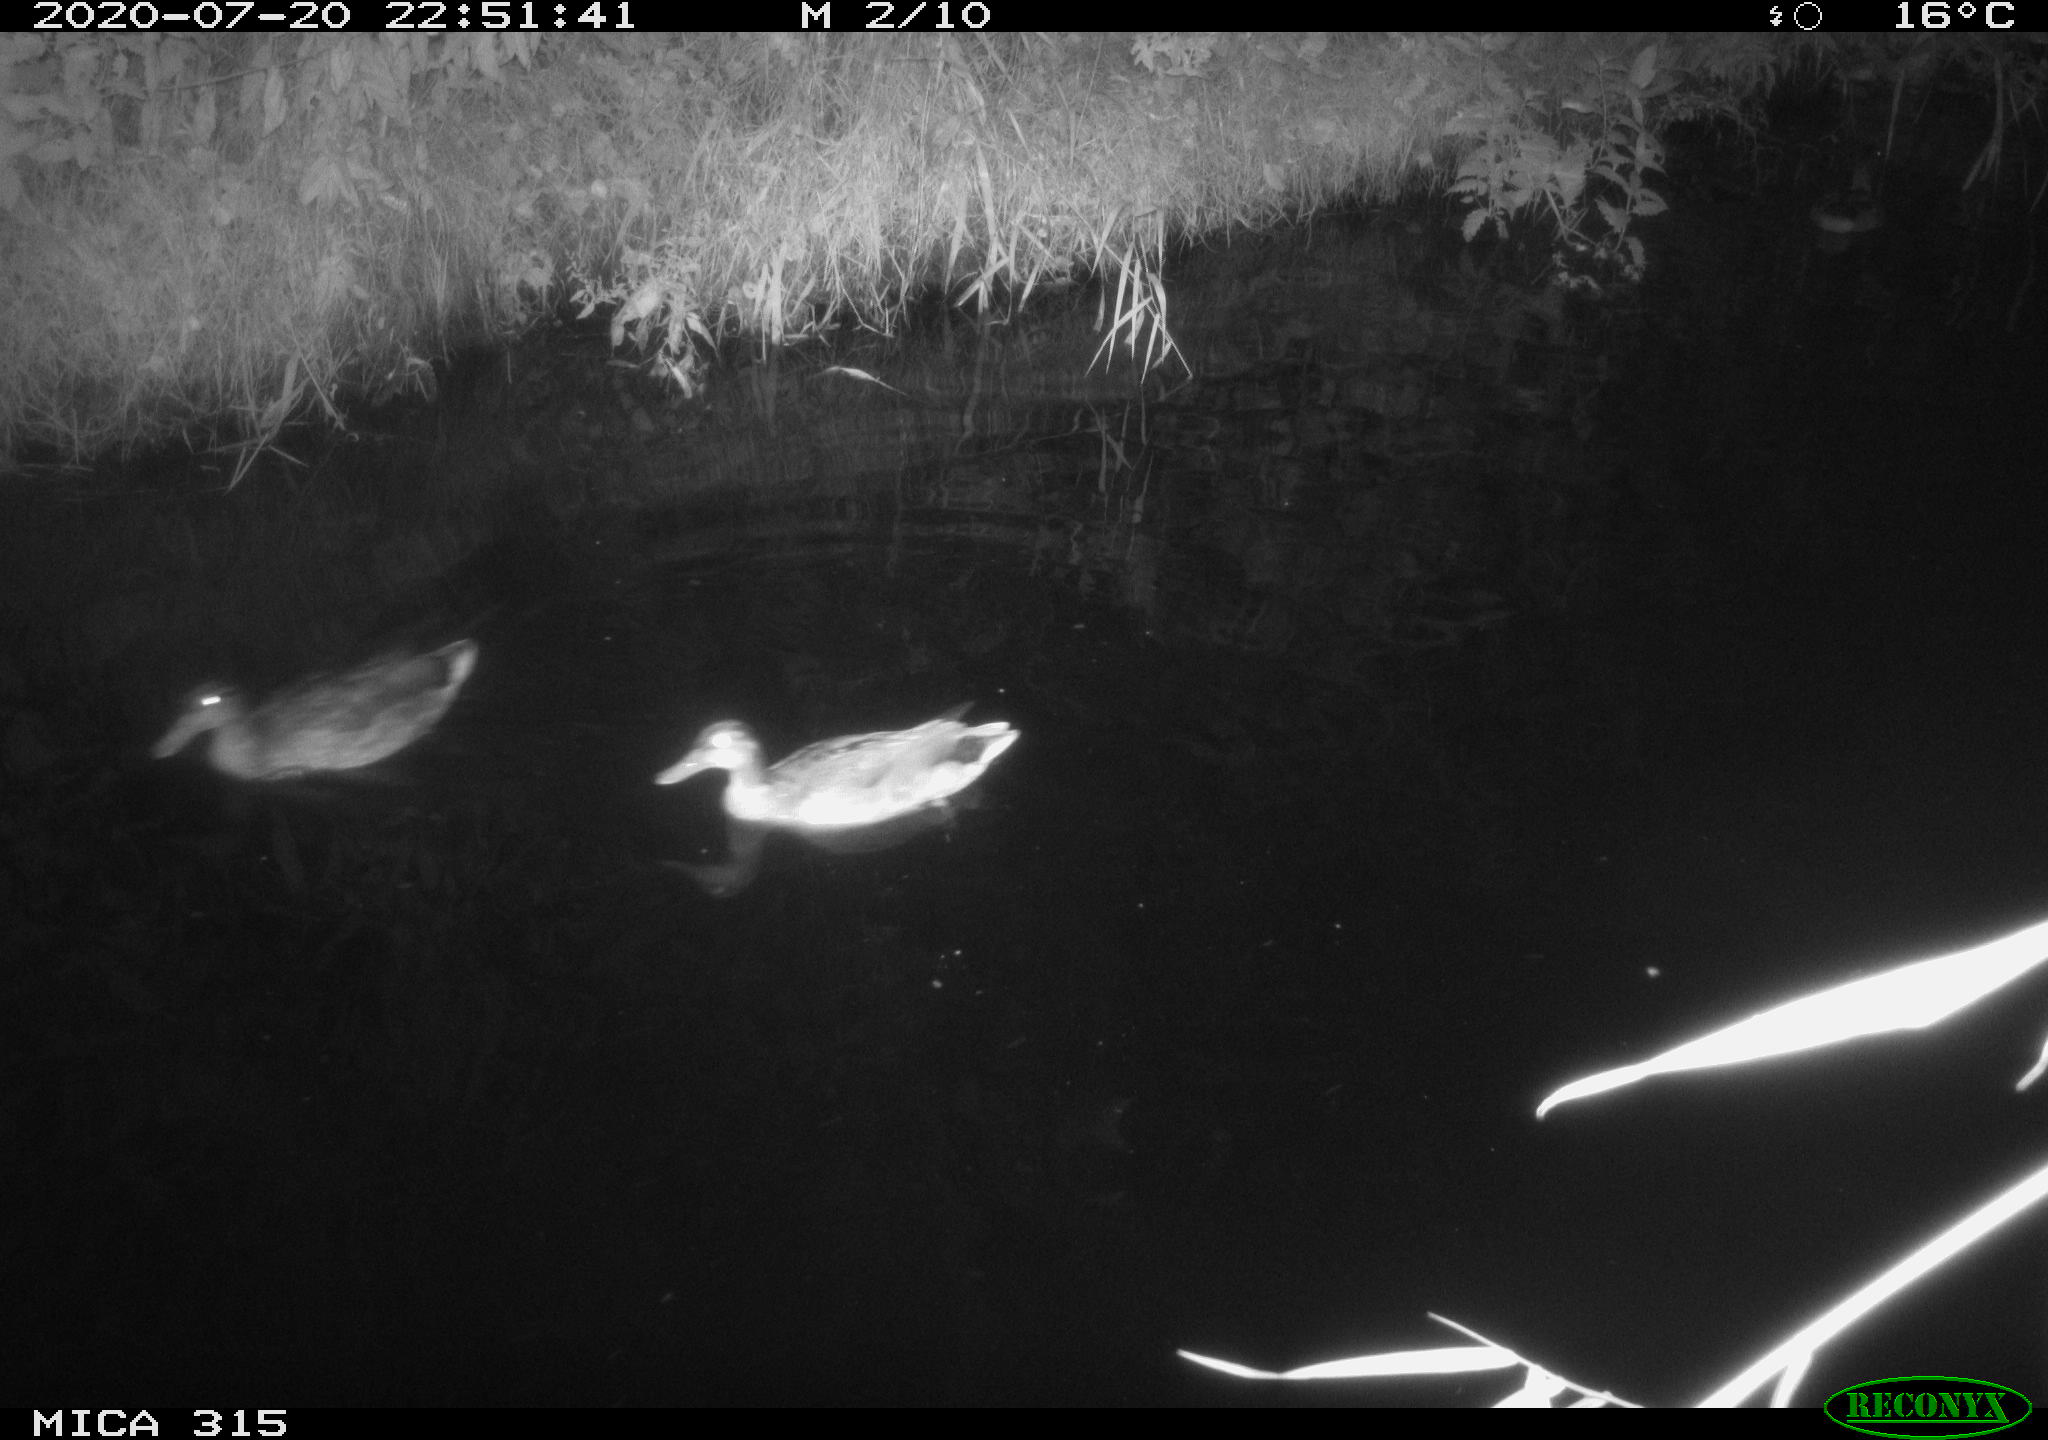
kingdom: Animalia
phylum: Chordata
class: Aves
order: Anseriformes
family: Anatidae
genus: Anas
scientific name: Anas platyrhynchos
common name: Mallard
